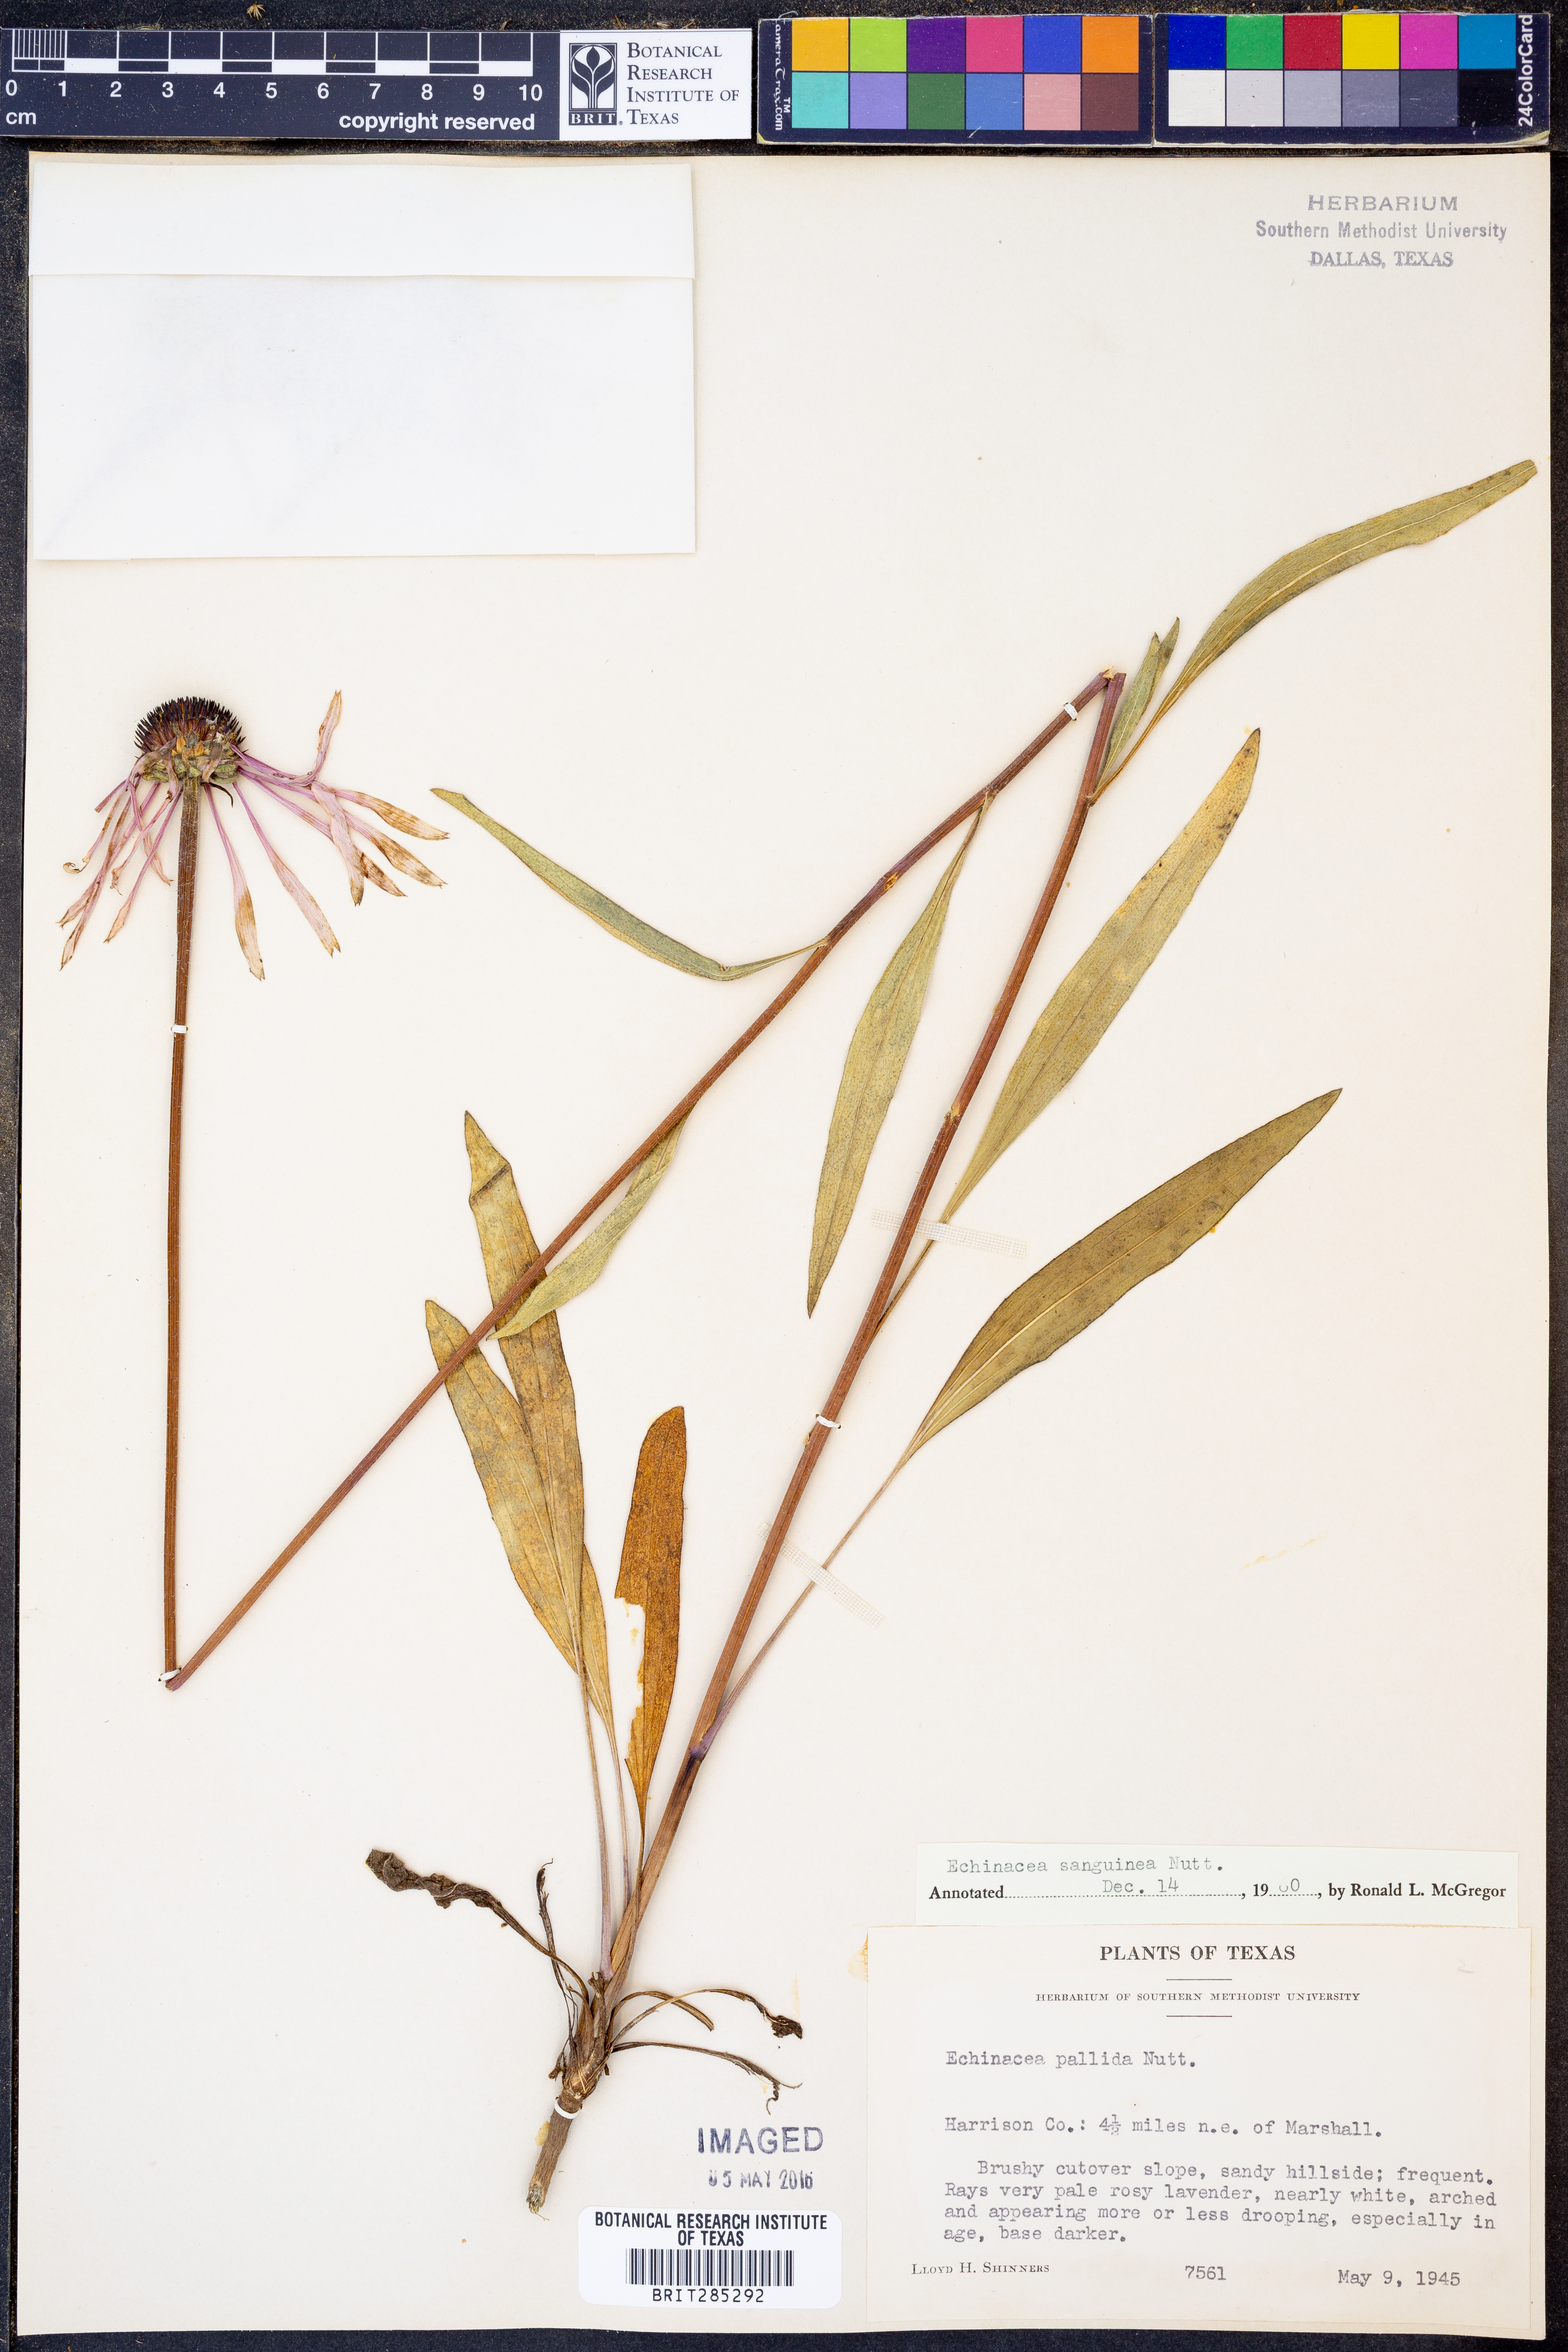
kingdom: Plantae
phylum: Tracheophyta
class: Magnoliopsida
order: Asterales
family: Asteraceae
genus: Echinacea
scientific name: Echinacea sanguinea
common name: Sanguine purple-coneflower
